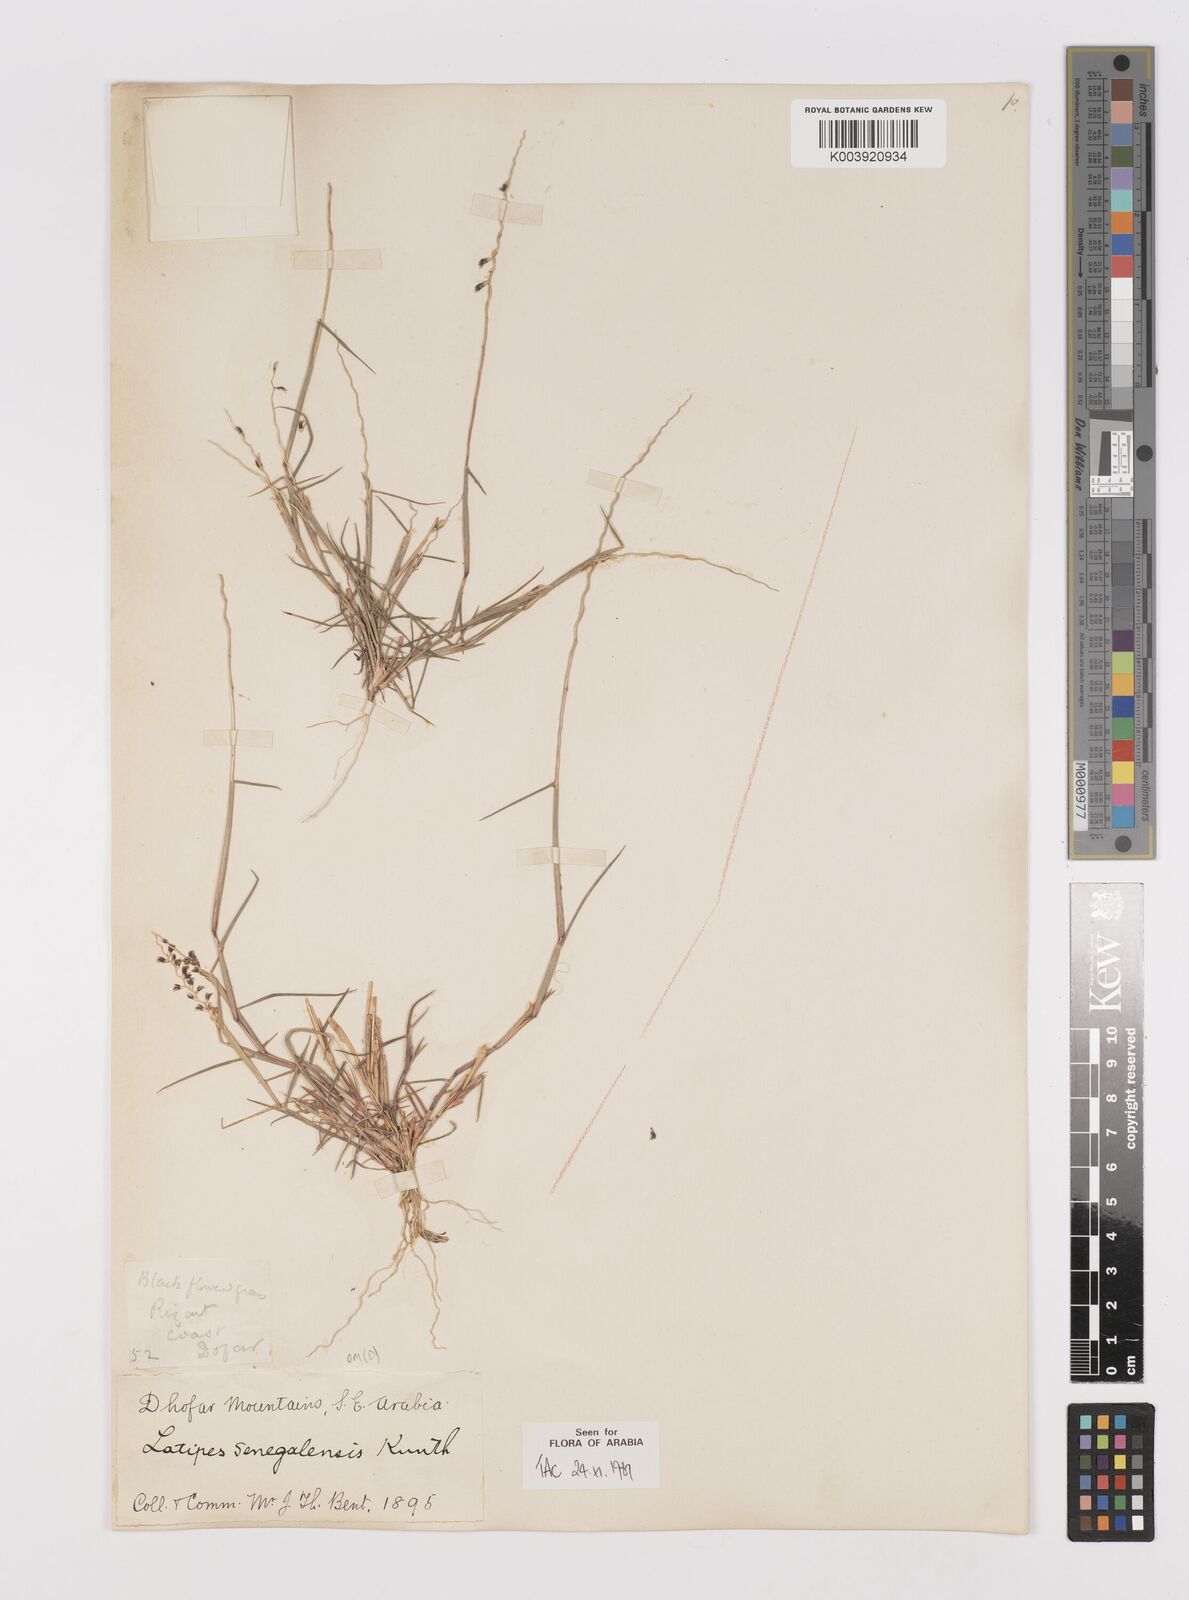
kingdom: Plantae
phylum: Tracheophyta
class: Liliopsida
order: Poales
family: Poaceae
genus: Leptothrium
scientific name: Leptothrium senegalense
